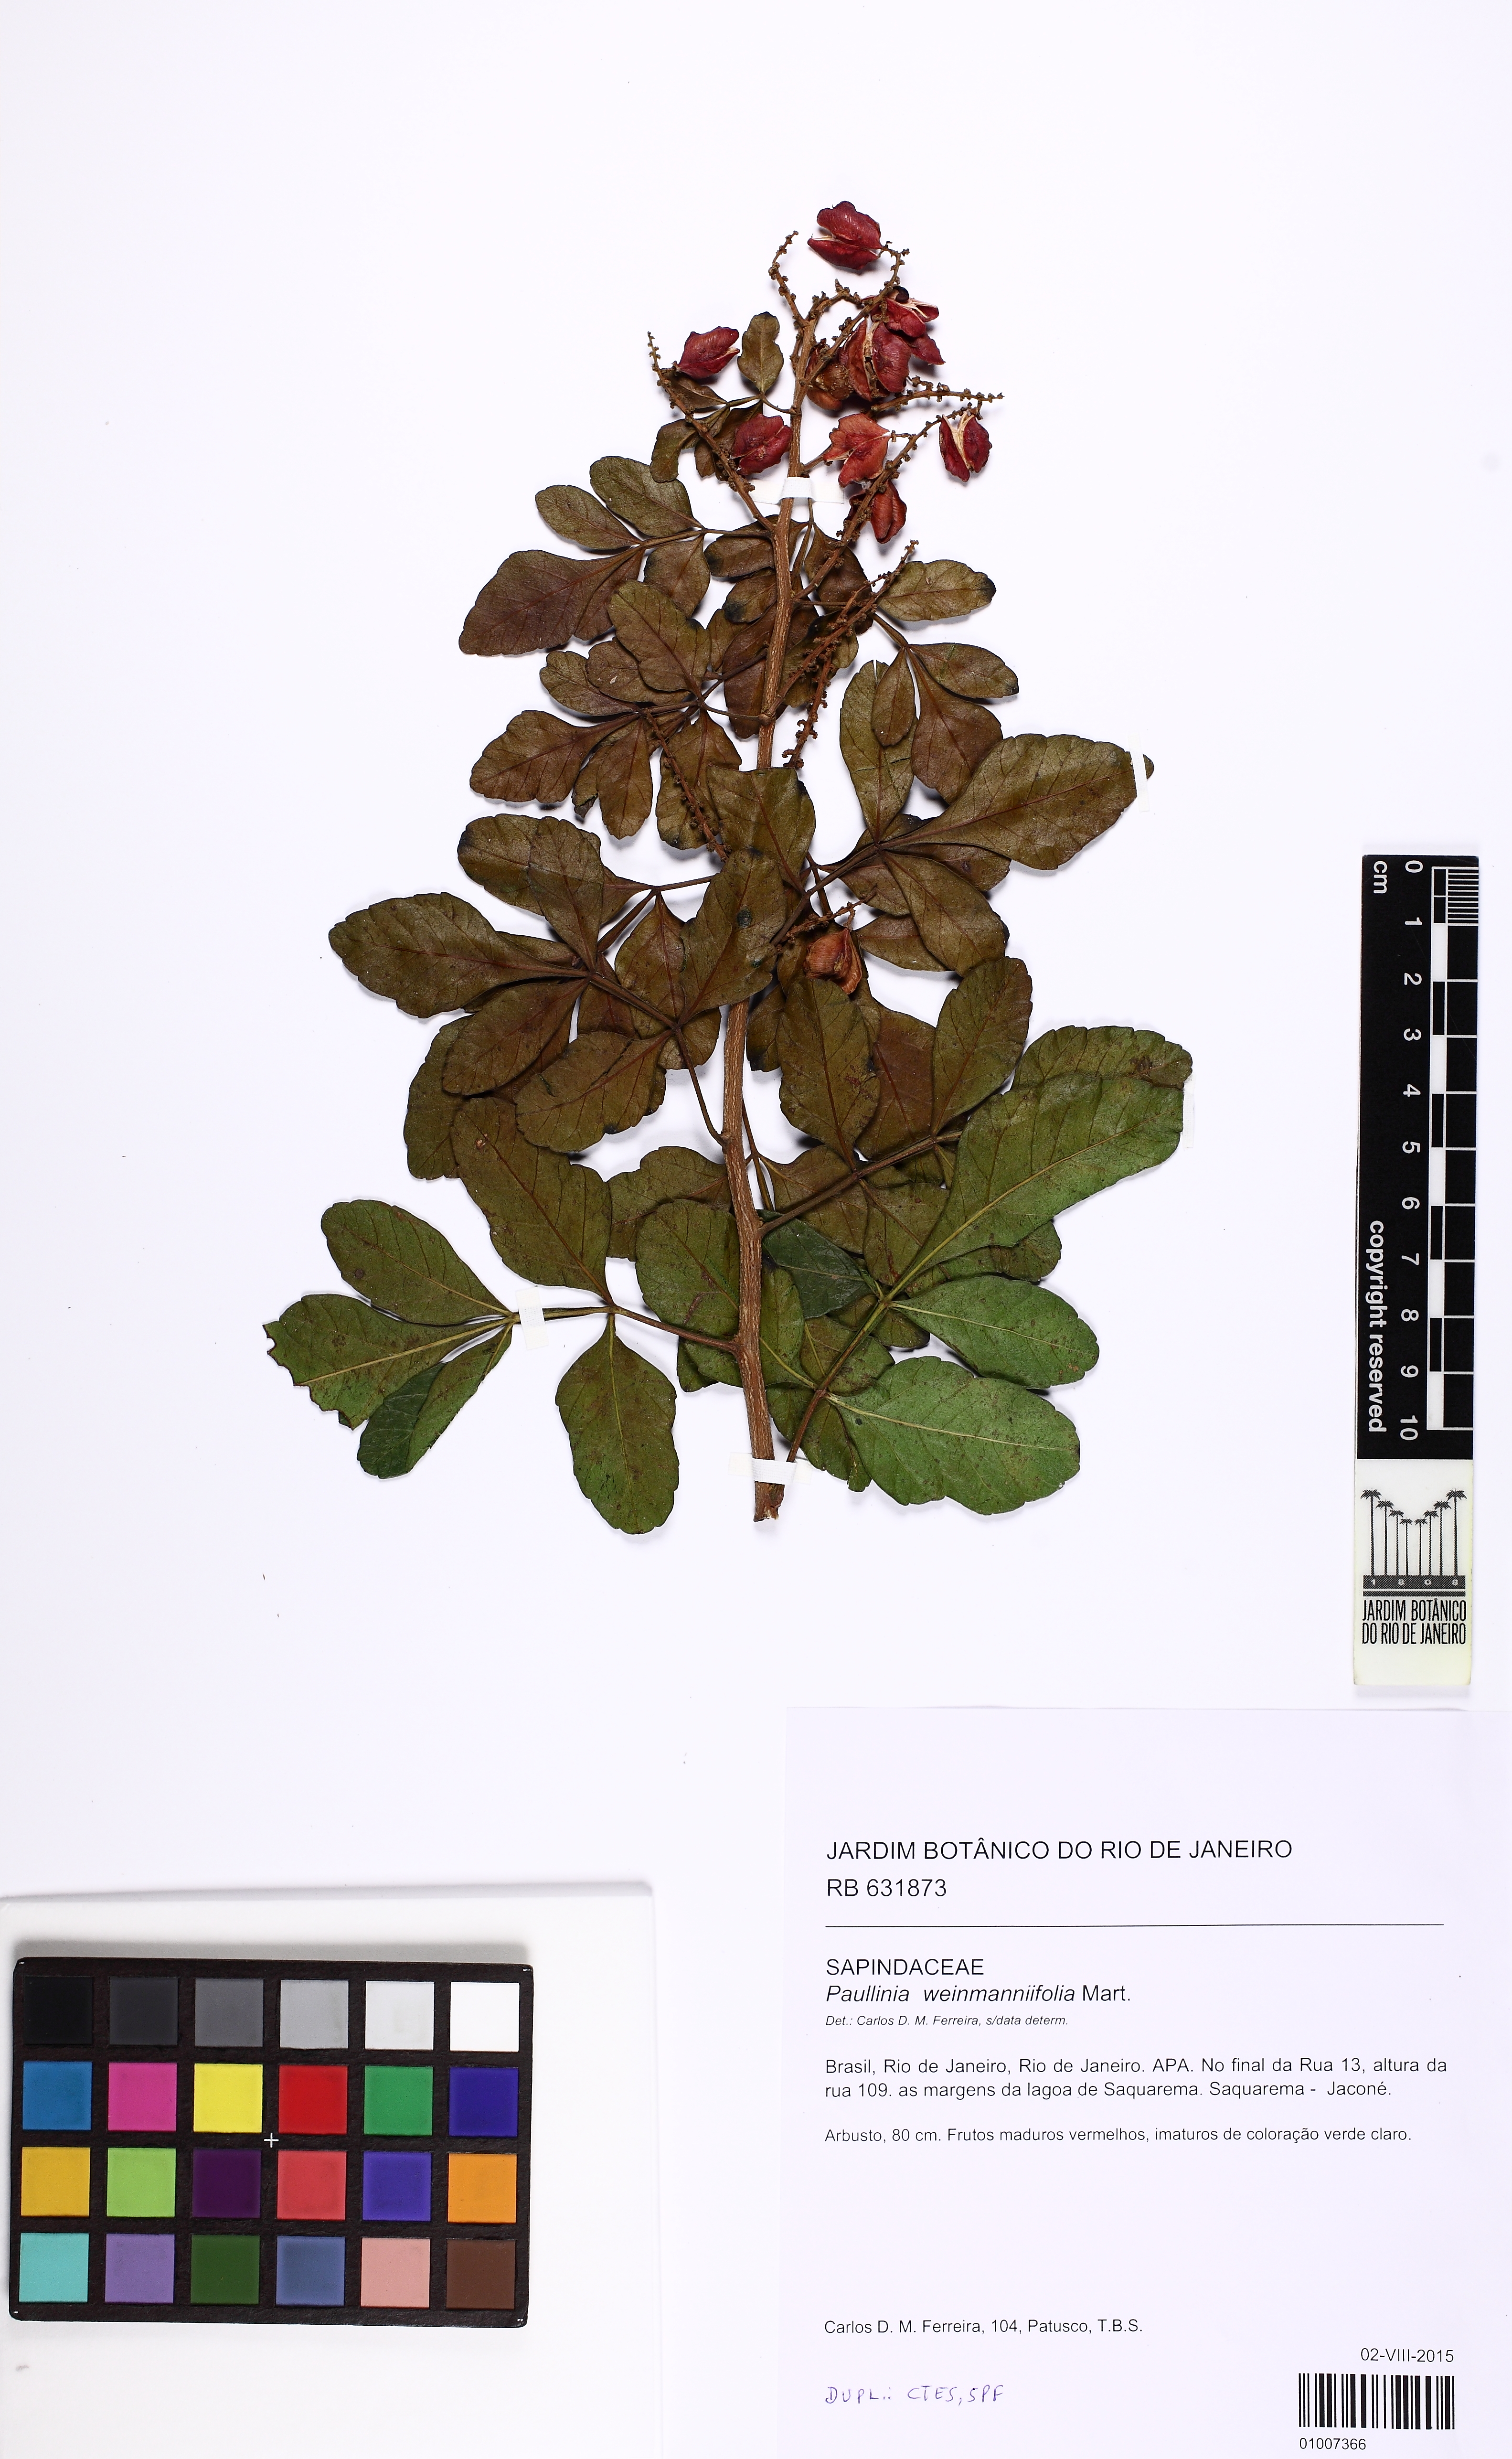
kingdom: Plantae
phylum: Tracheophyta
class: Magnoliopsida
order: Sapindales
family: Sapindaceae
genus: Paullinia
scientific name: Paullinia weinmanniifolia
